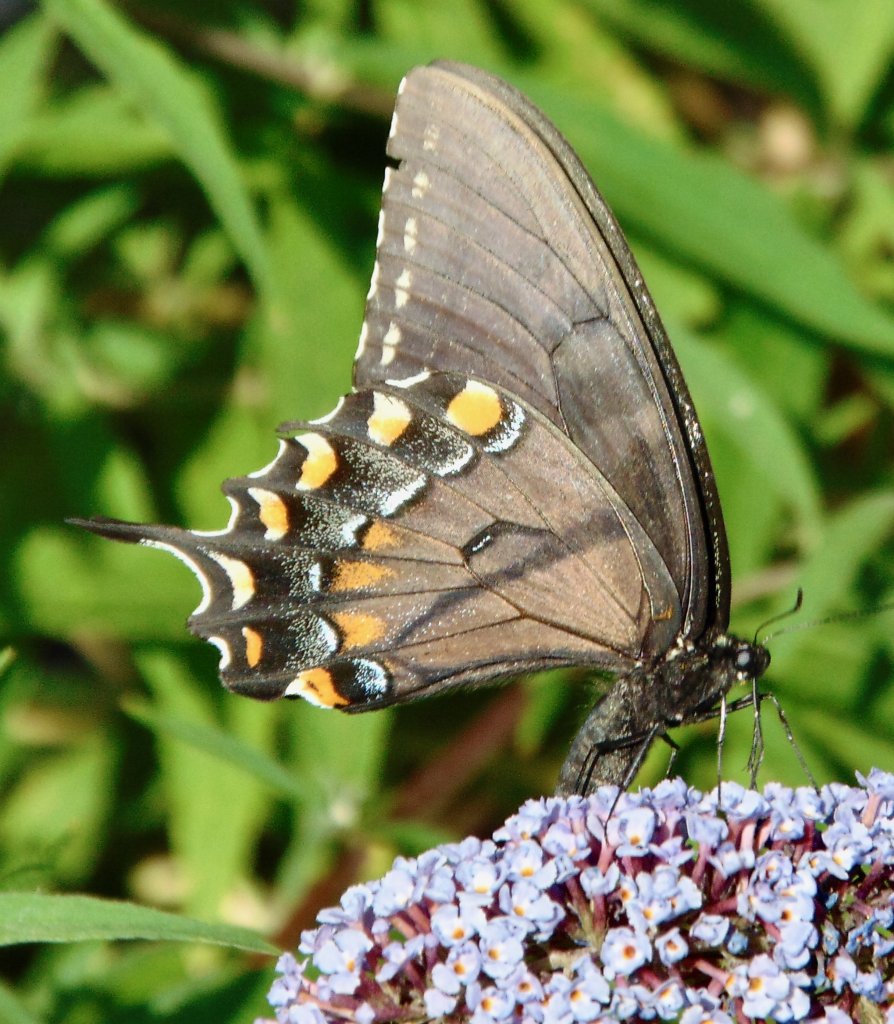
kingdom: Animalia
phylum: Arthropoda
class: Insecta
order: Lepidoptera
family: Papilionidae
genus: Pterourus
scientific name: Pterourus glaucus
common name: Eastern Tiger Swallowtail
